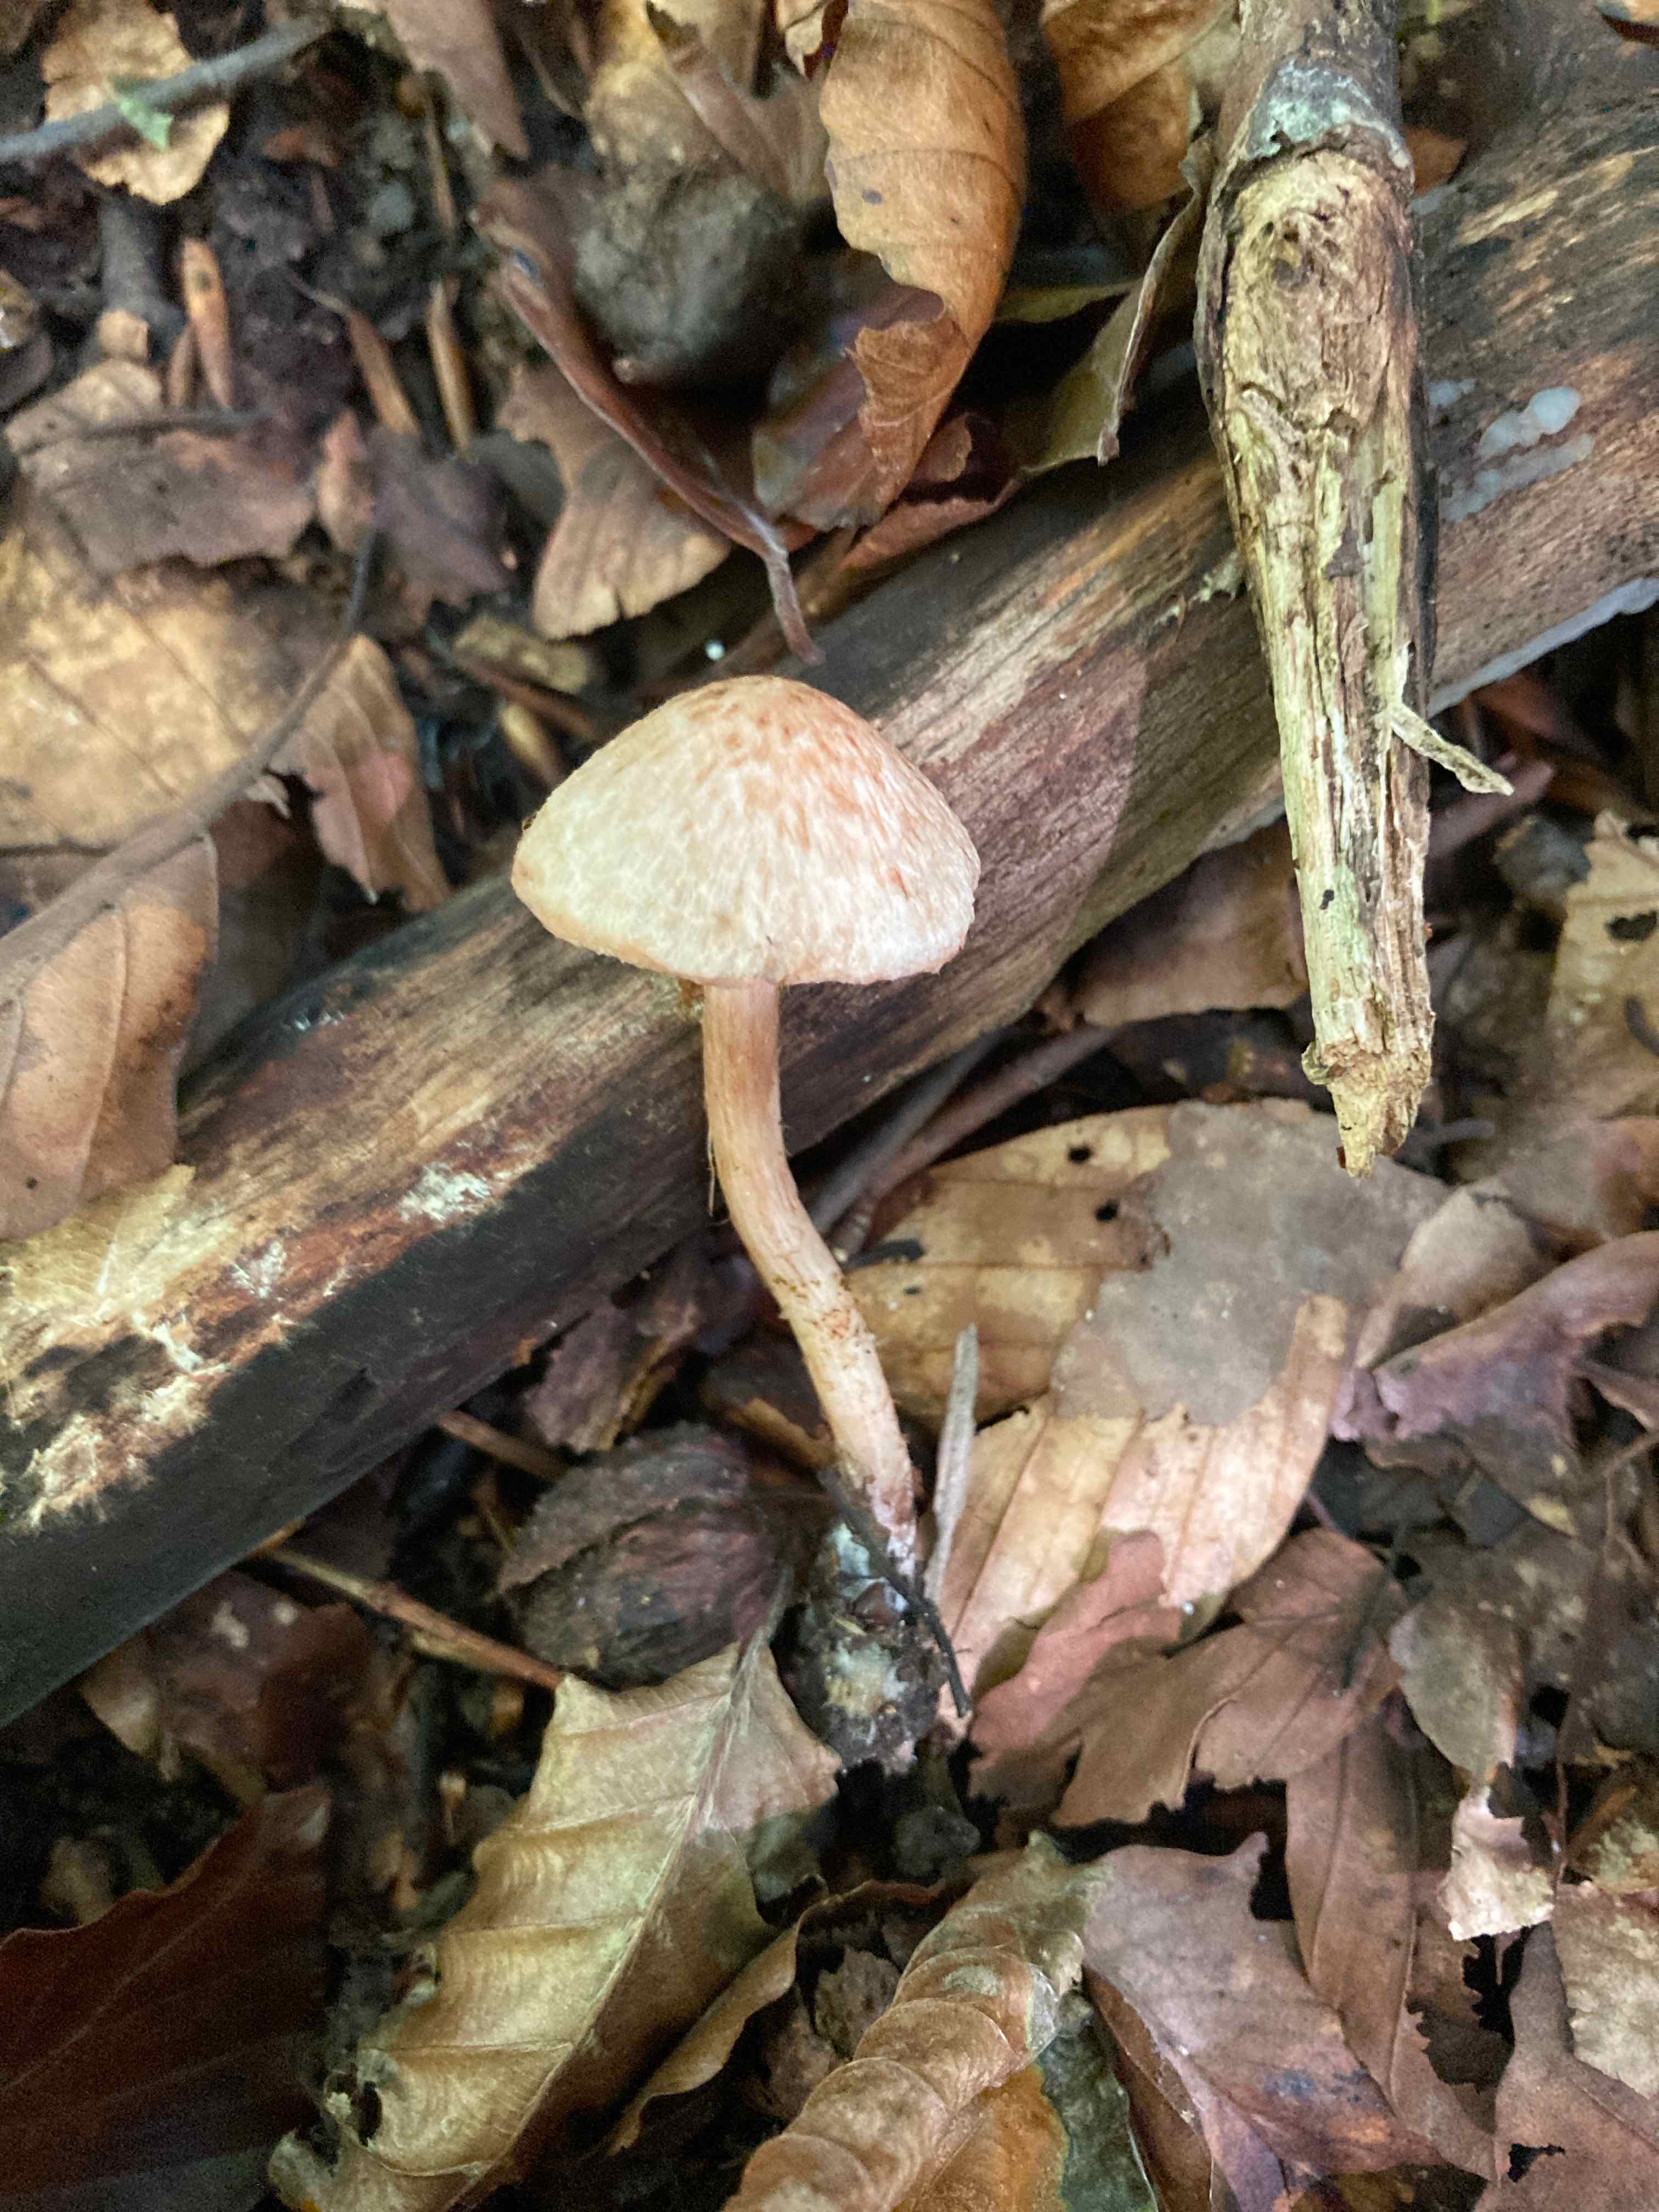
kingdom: Fungi
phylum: Basidiomycota
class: Agaricomycetes
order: Agaricales
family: Inocybaceae
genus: Inosperma
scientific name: Inosperma bongardii
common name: Bongards trævlhat
